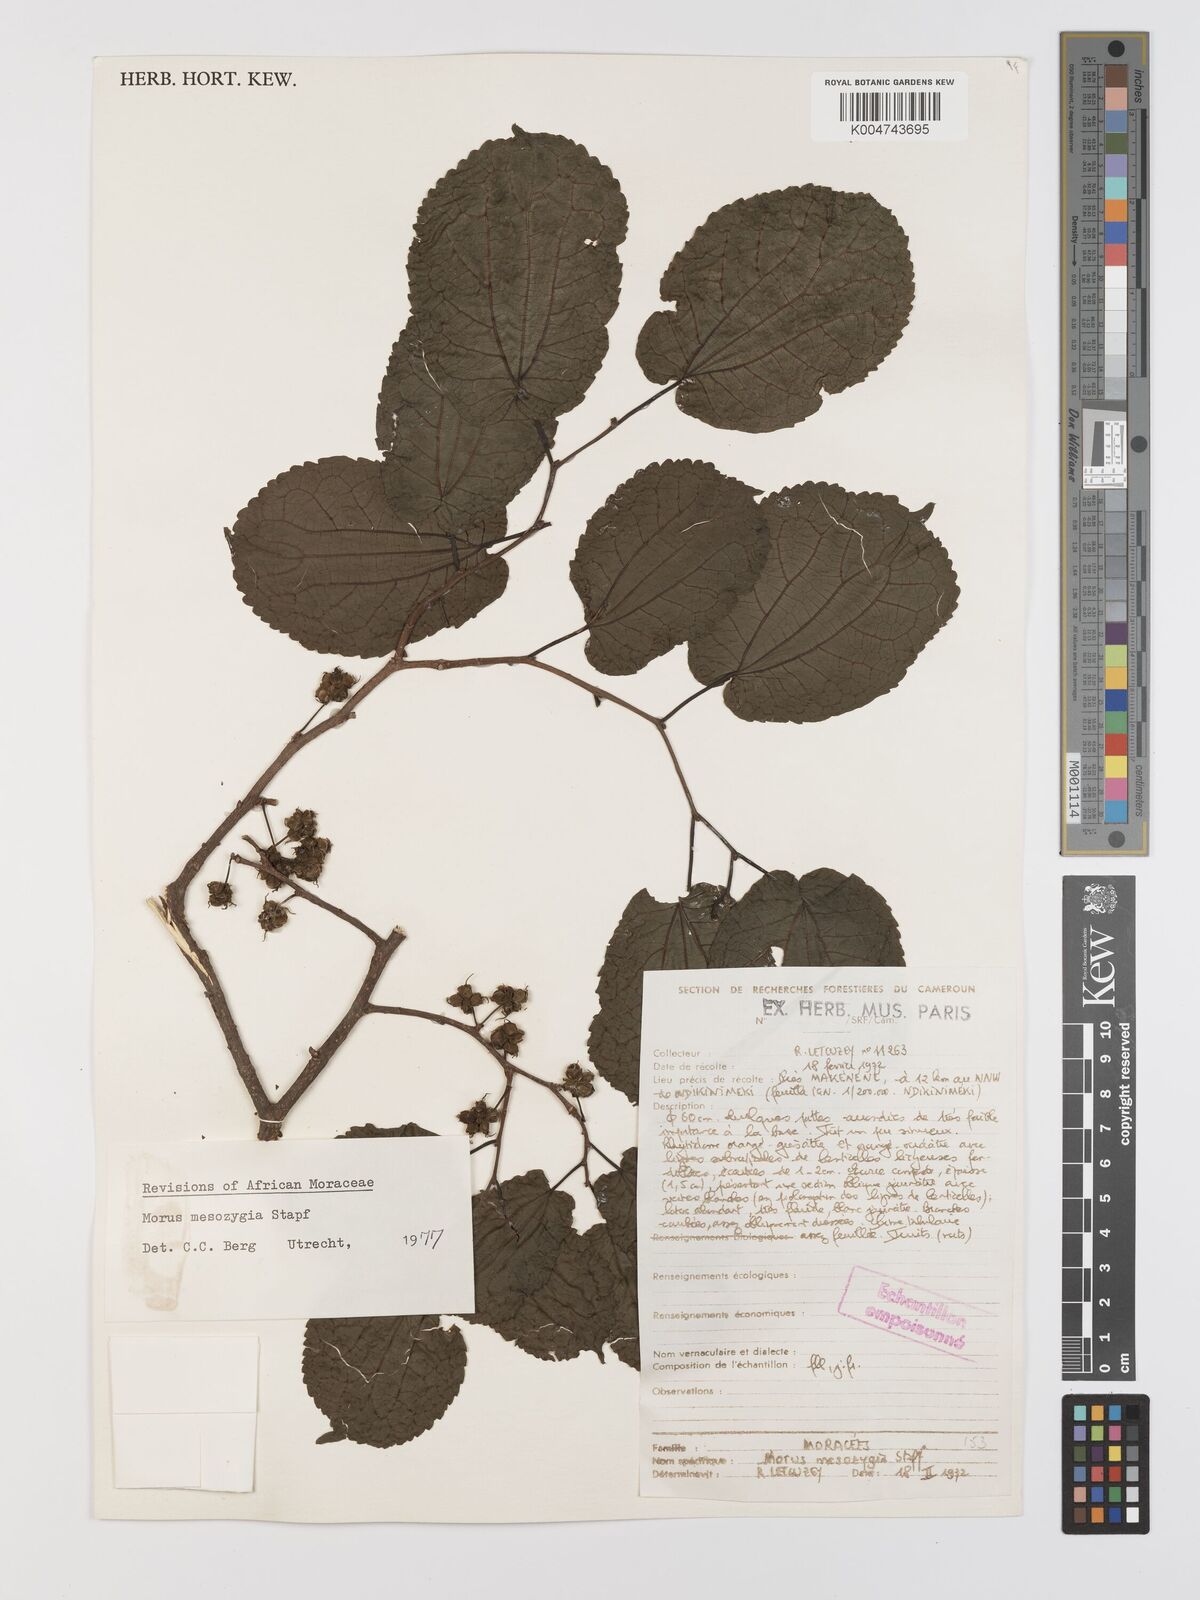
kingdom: Plantae
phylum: Tracheophyta
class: Magnoliopsida
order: Rosales
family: Moraceae
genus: Afromorus
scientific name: Afromorus mesozygia
